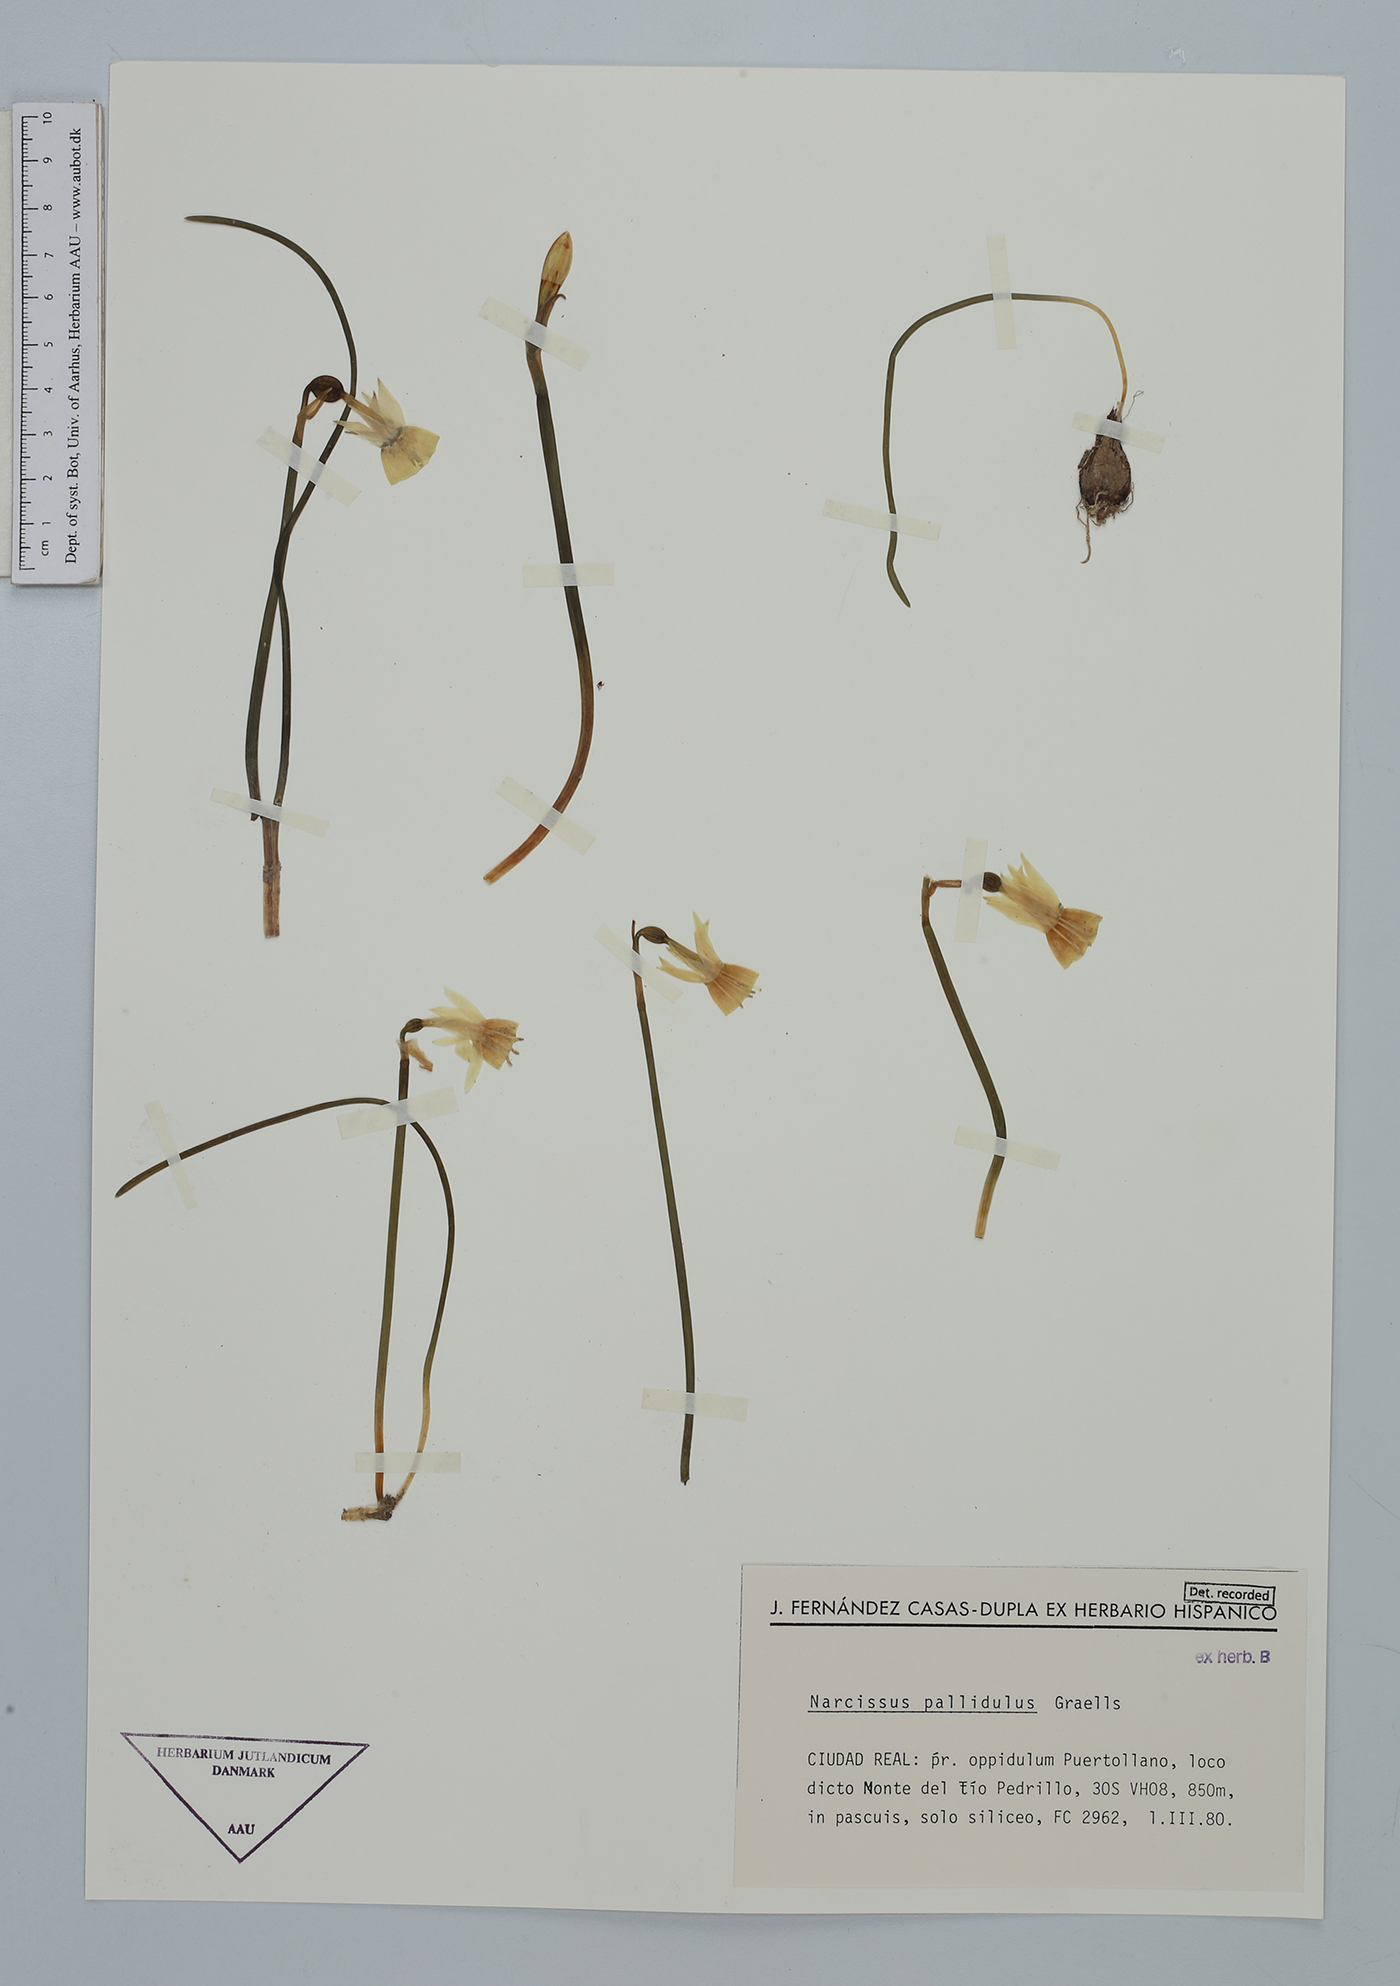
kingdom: Plantae
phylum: Tracheophyta
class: Liliopsida
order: Asparagales
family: Amaryllidaceae
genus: Narcissus
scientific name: Narcissus triandrus
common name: Angel's-tears
